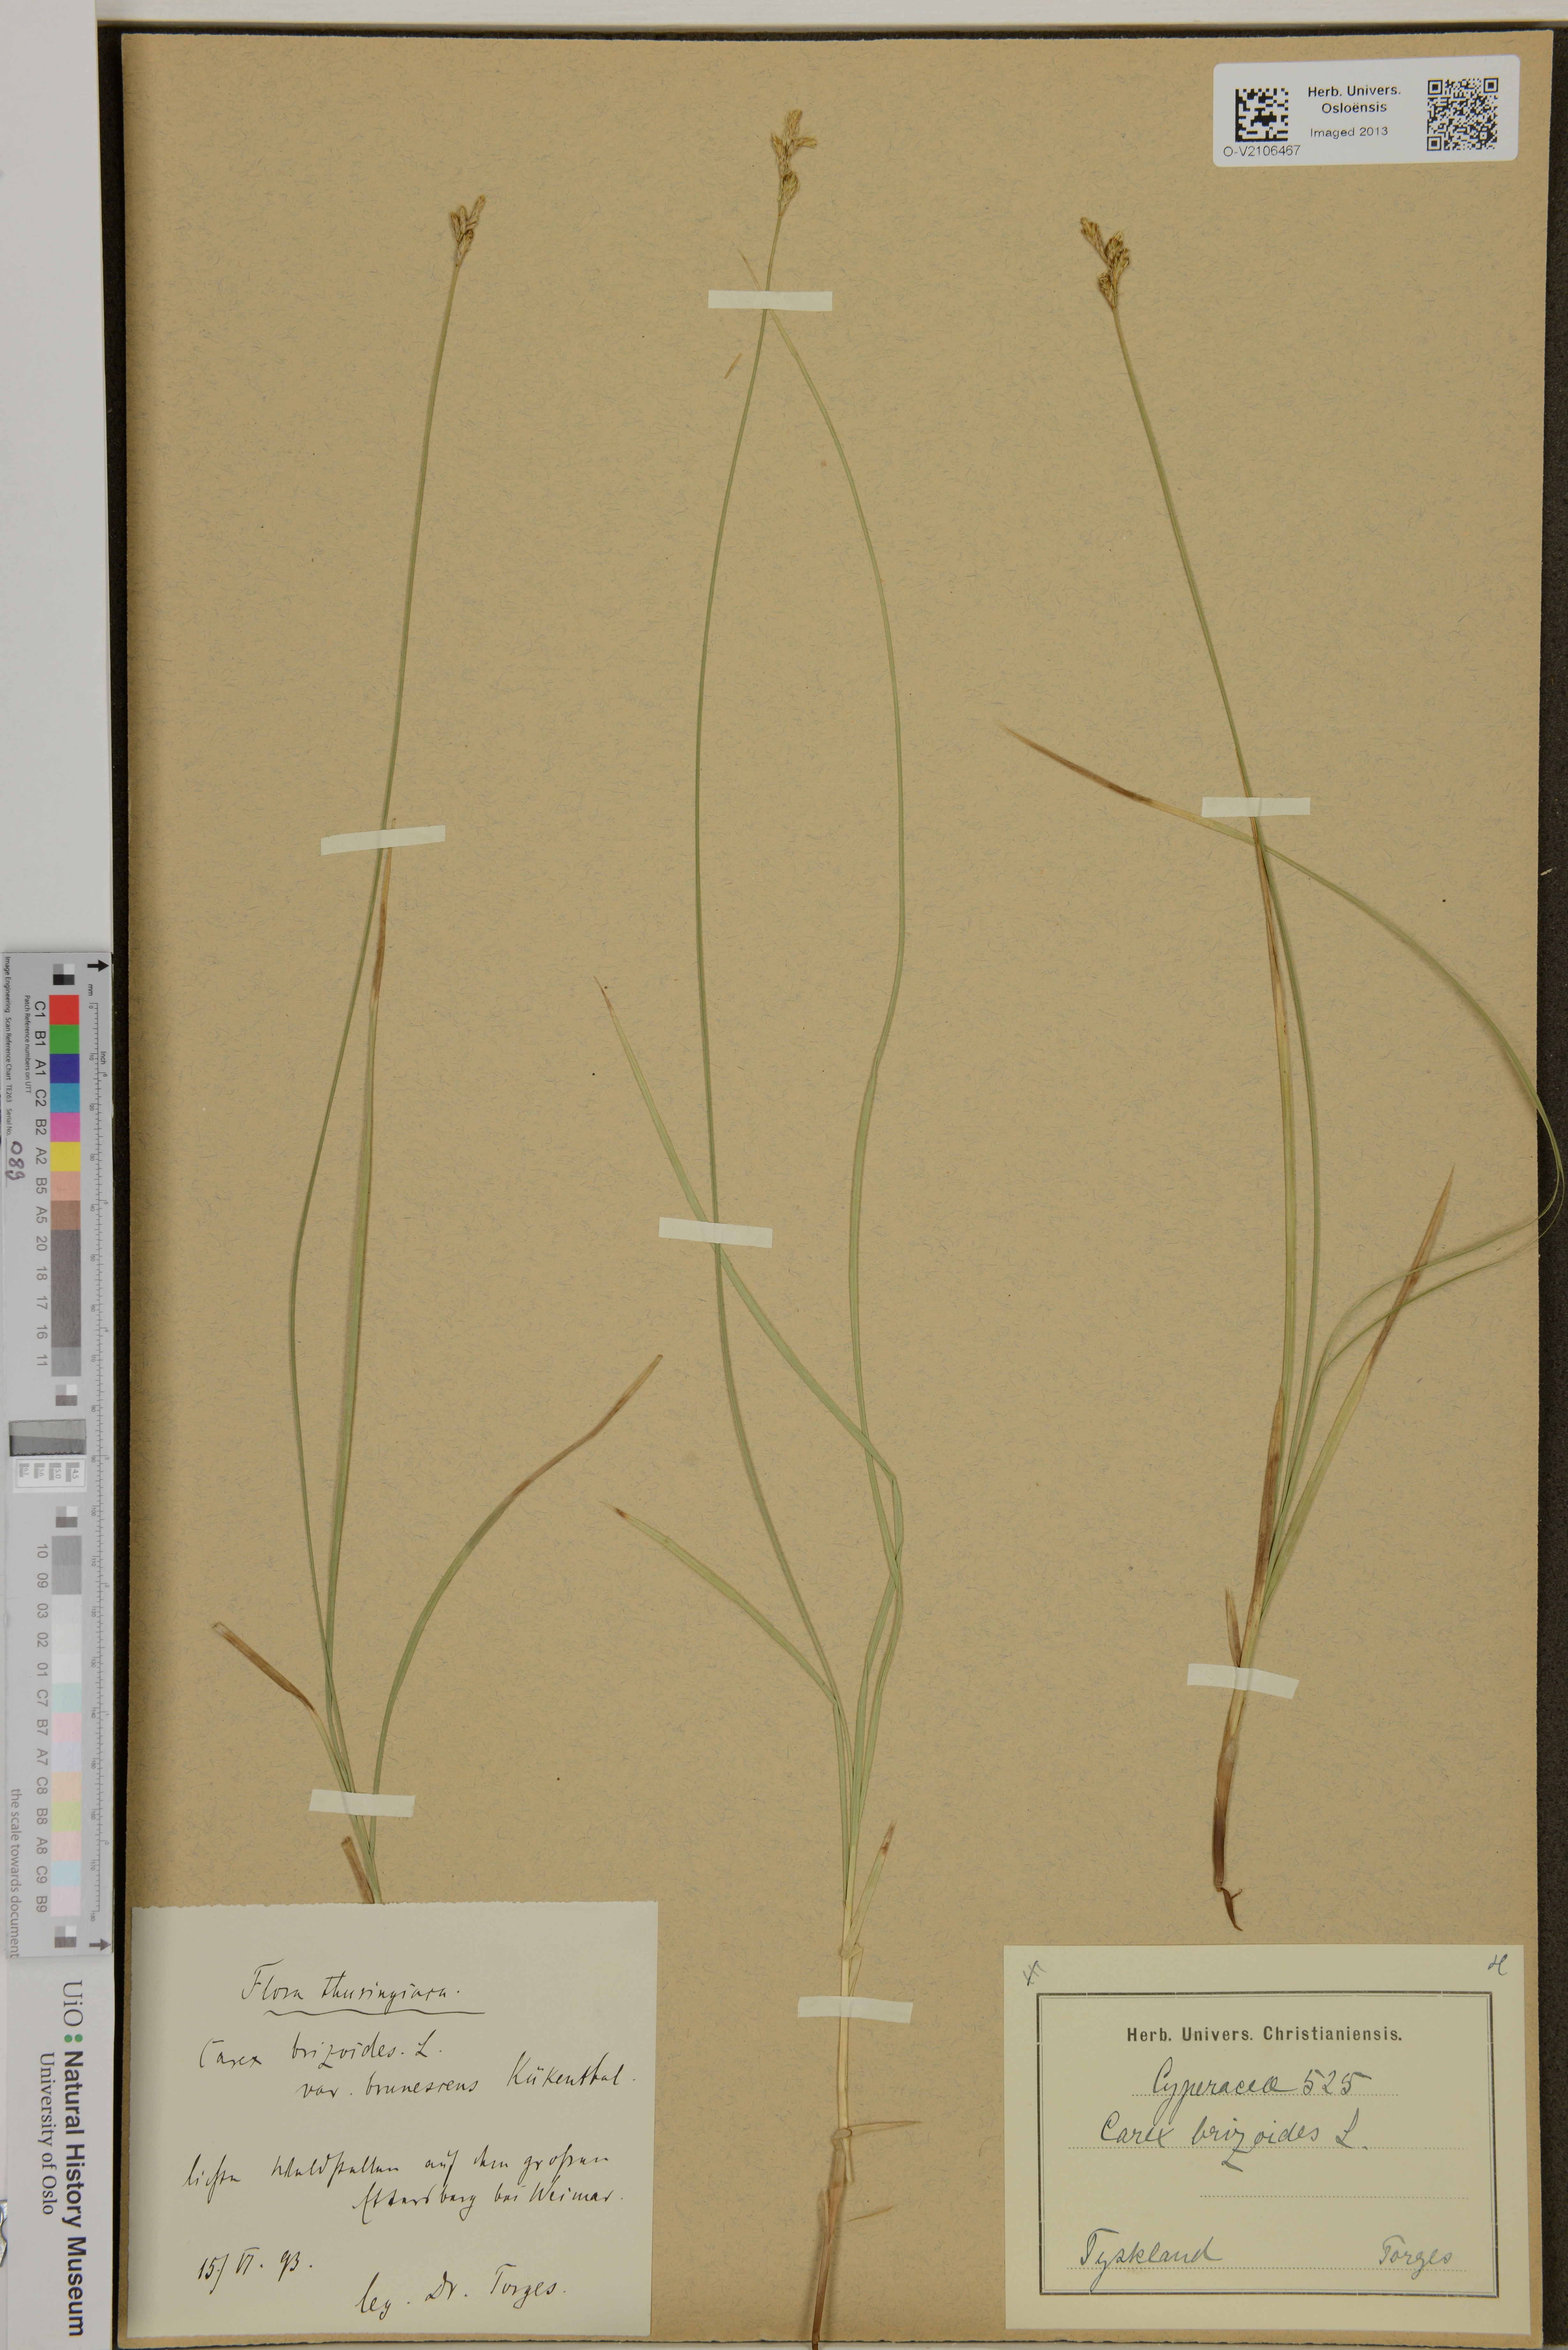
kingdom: Plantae
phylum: Tracheophyta
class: Liliopsida
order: Poales
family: Cyperaceae
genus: Carex
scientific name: Carex brizoides
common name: Quaking-grass sedge
